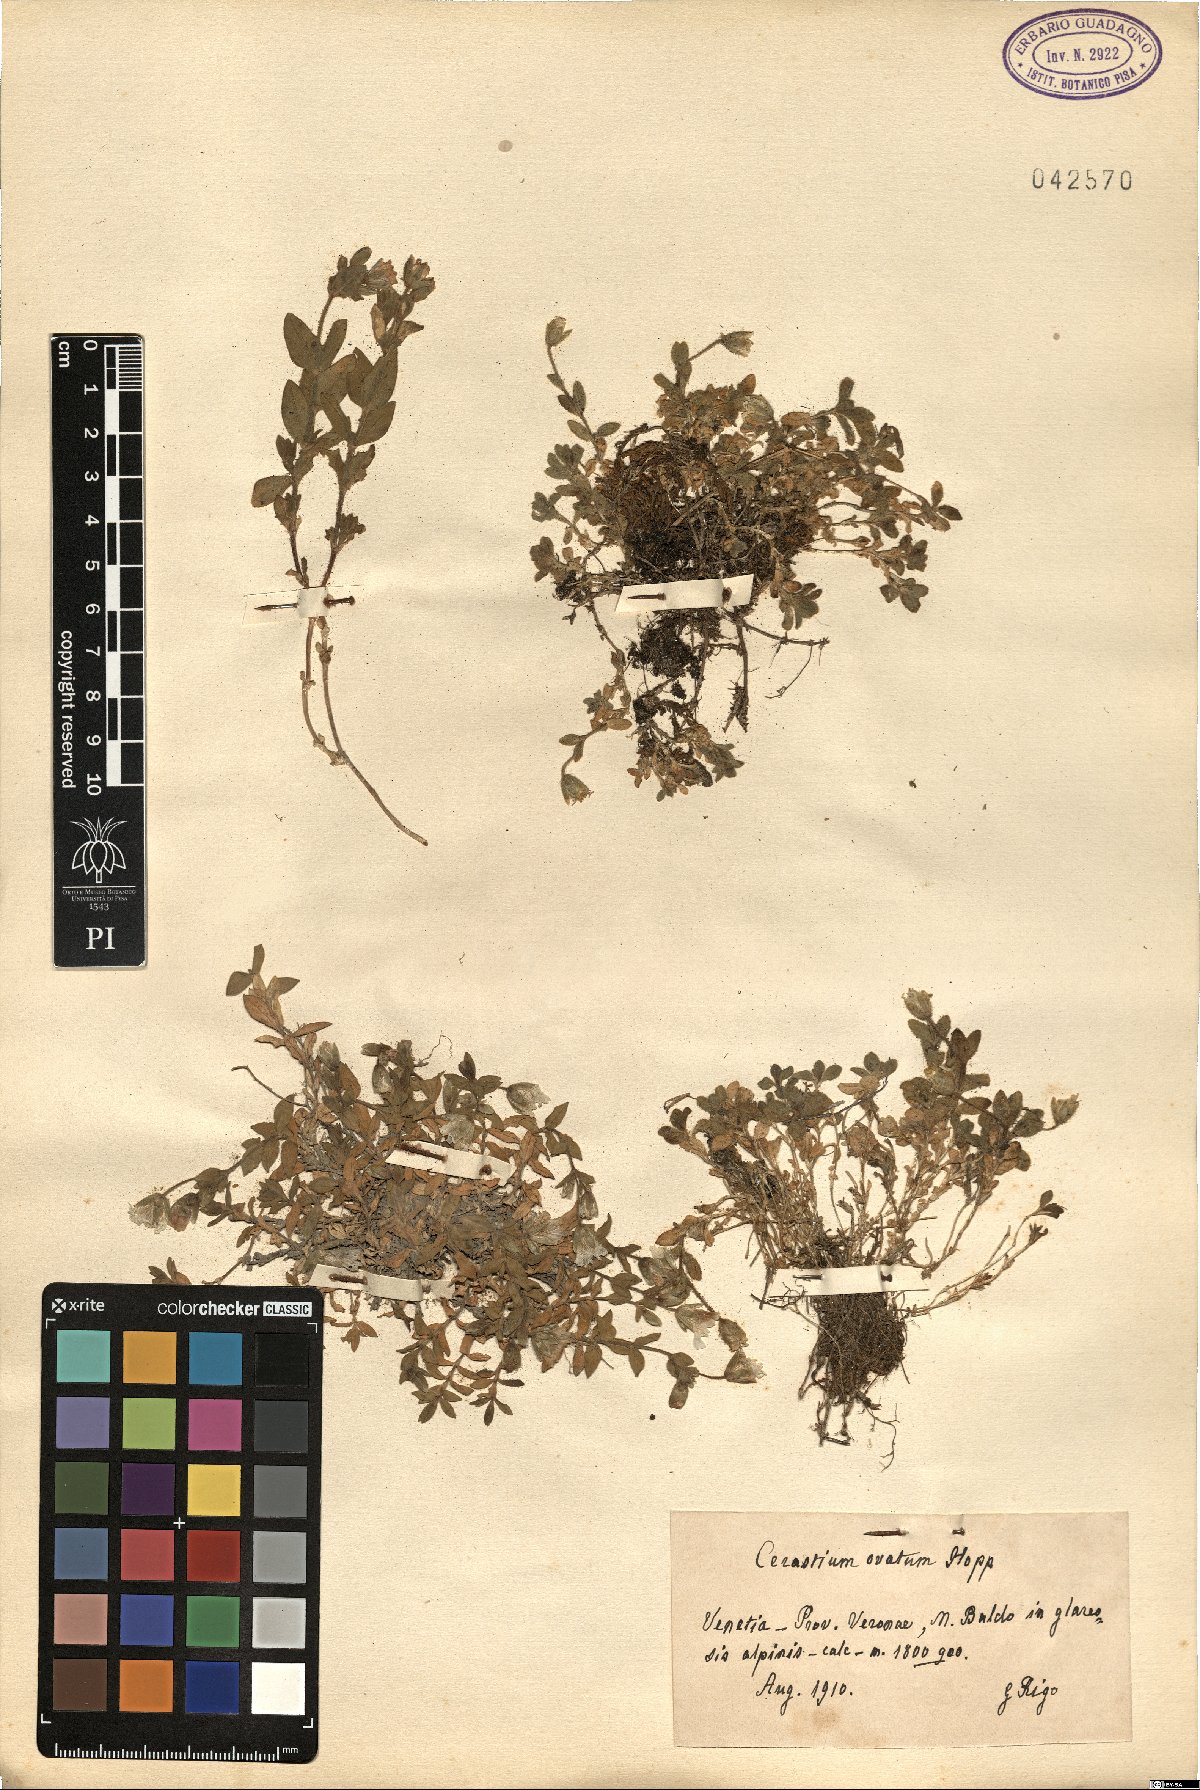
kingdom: Plantae
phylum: Tracheophyta
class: Magnoliopsida
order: Caryophyllales
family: Caryophyllaceae
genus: Cerastium
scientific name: Cerastium arvense
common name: Field mouse-ear
